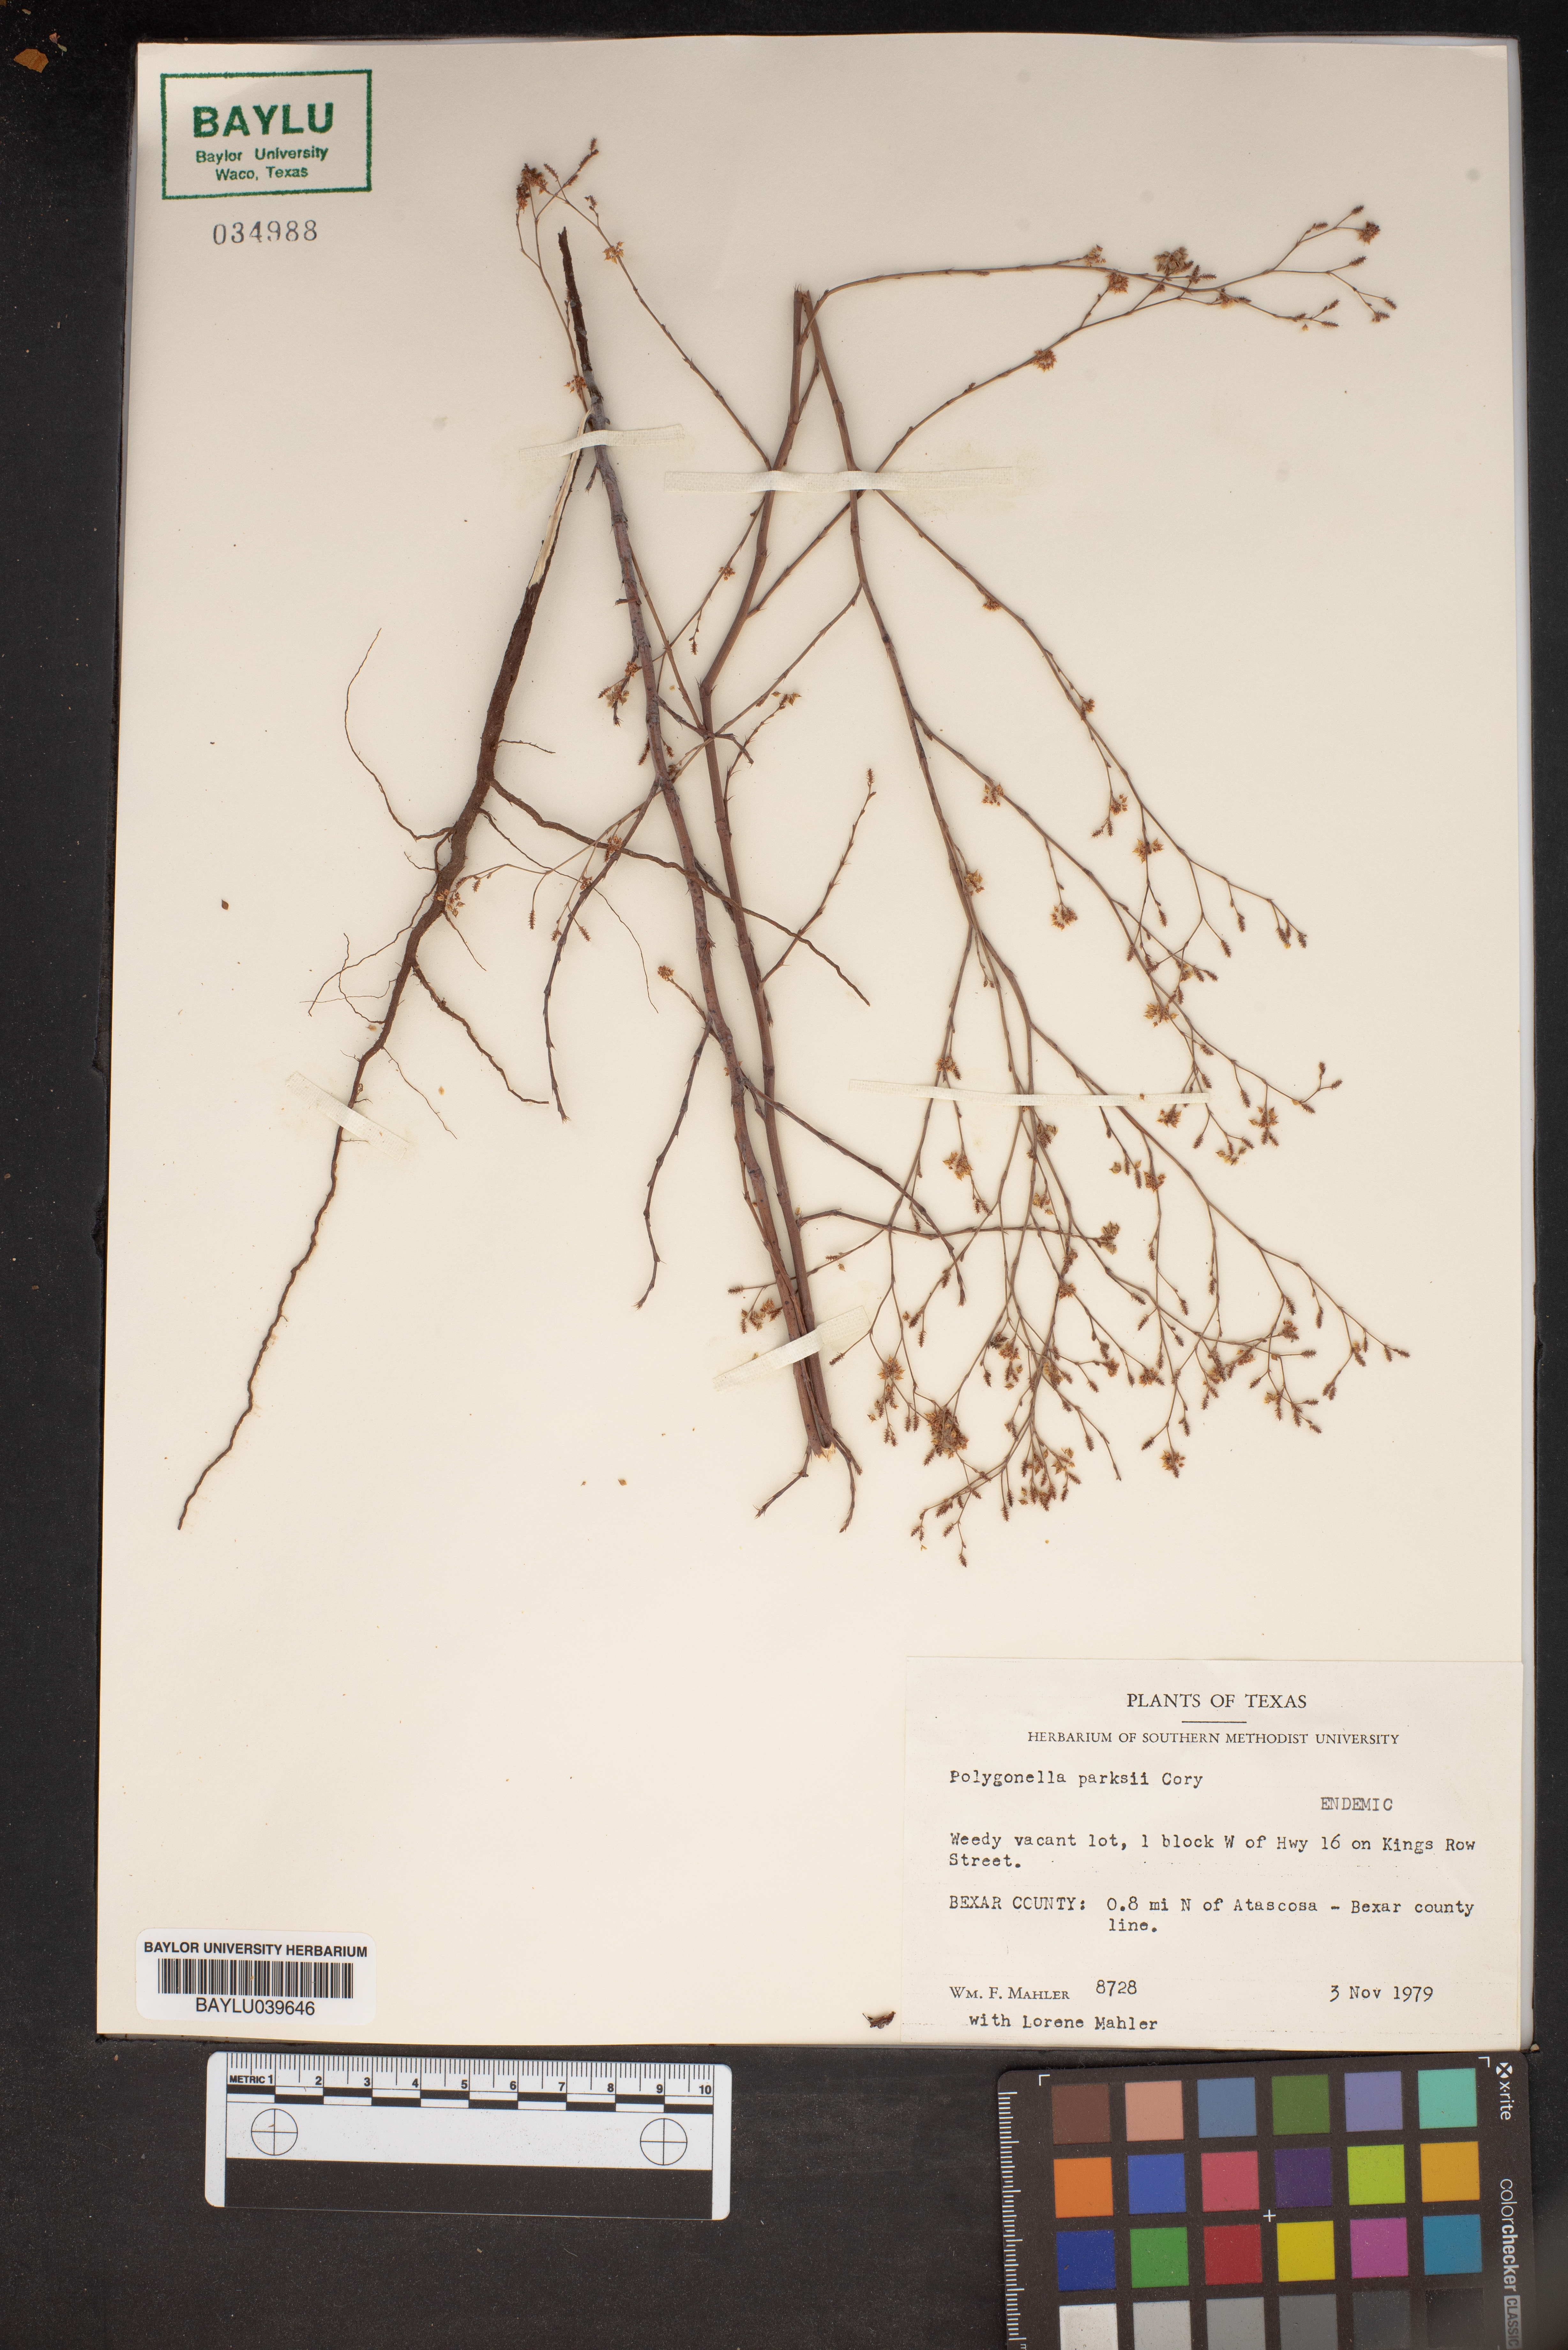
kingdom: Plantae
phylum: Tracheophyta
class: Magnoliopsida
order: Caryophyllales
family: Polygonaceae
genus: Polygonella
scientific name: Polygonella parksii
